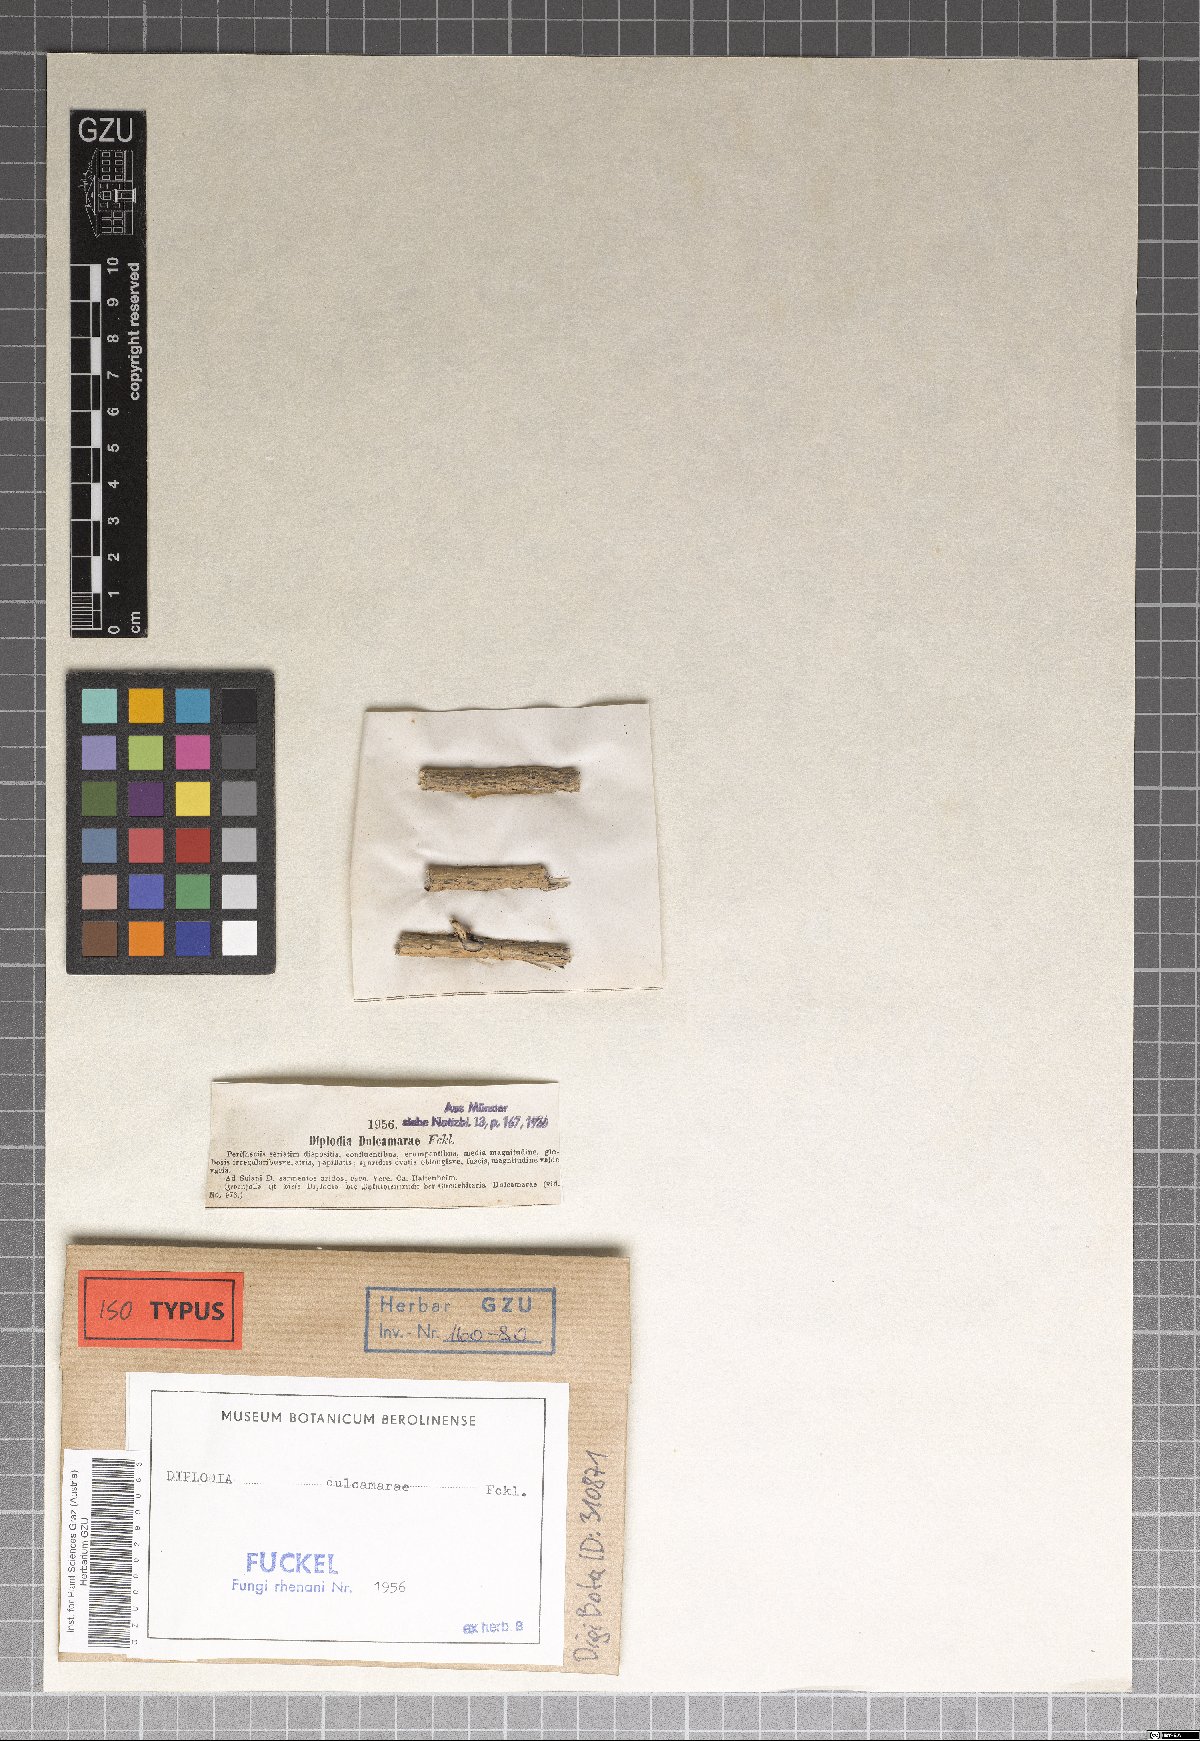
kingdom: Fungi
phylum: Ascomycota
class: Dothideomycetes
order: Pleosporales
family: Cucurbitariaceae
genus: Cucurbitaria
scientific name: Cucurbitaria dulcamarae
